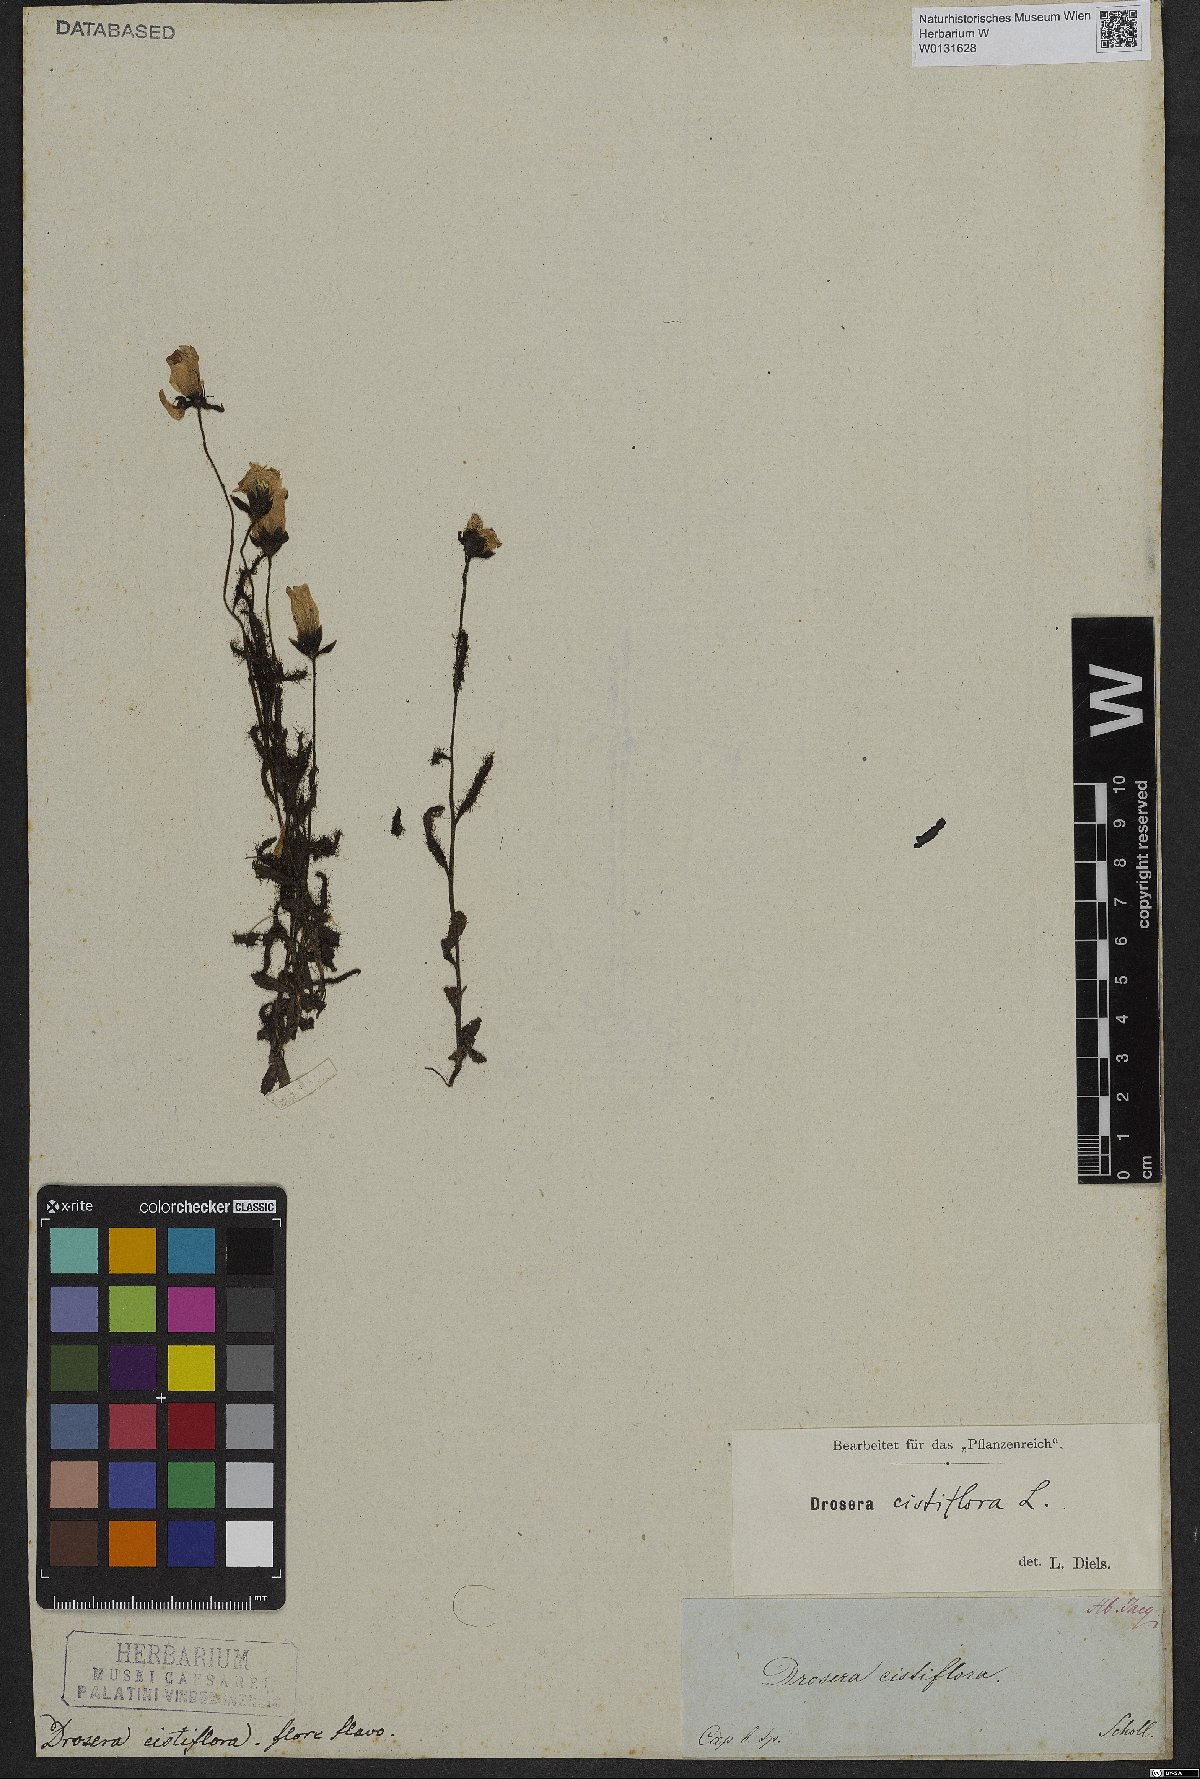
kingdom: Plantae
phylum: Tracheophyta
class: Magnoliopsida
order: Caryophyllales
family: Droseraceae
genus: Drosera
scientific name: Drosera cistiflora
